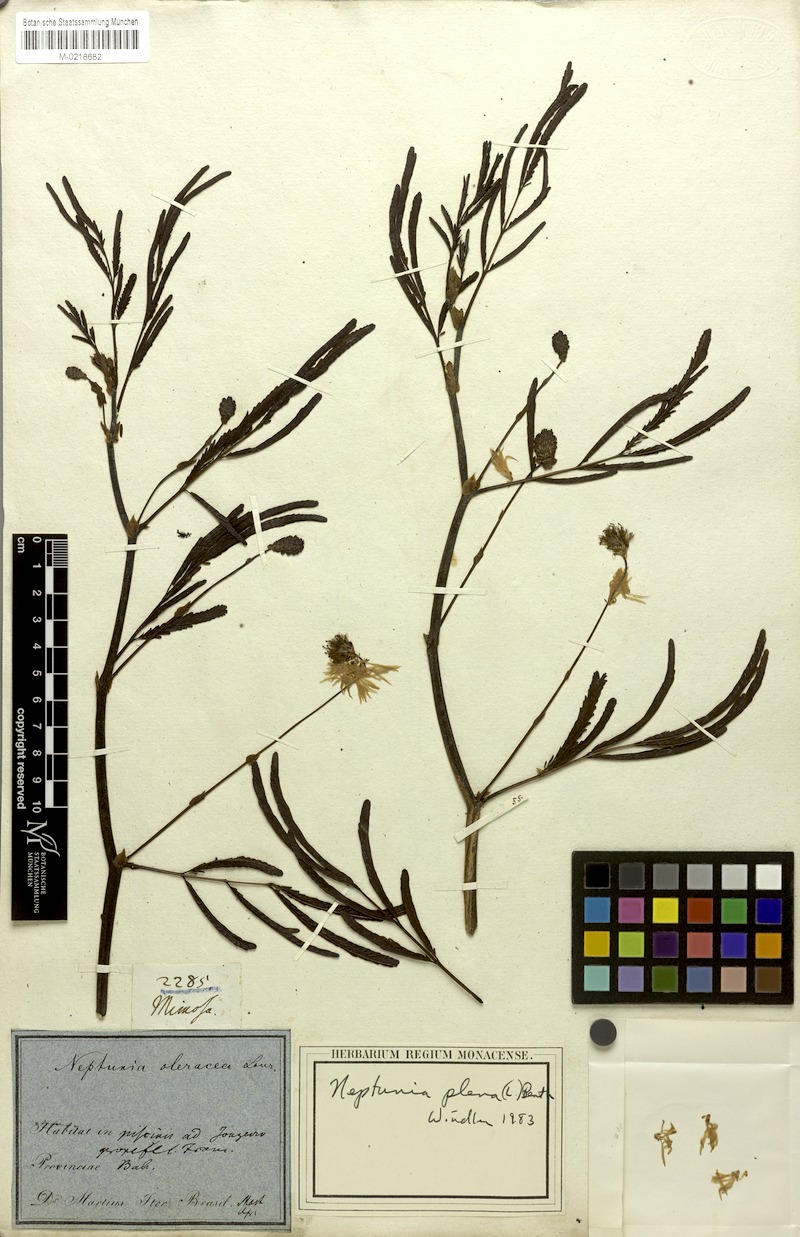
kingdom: Plantae
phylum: Tracheophyta
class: Magnoliopsida
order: Fabales
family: Fabaceae
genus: Neptunia
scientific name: Neptunia plena
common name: Dead and awake
